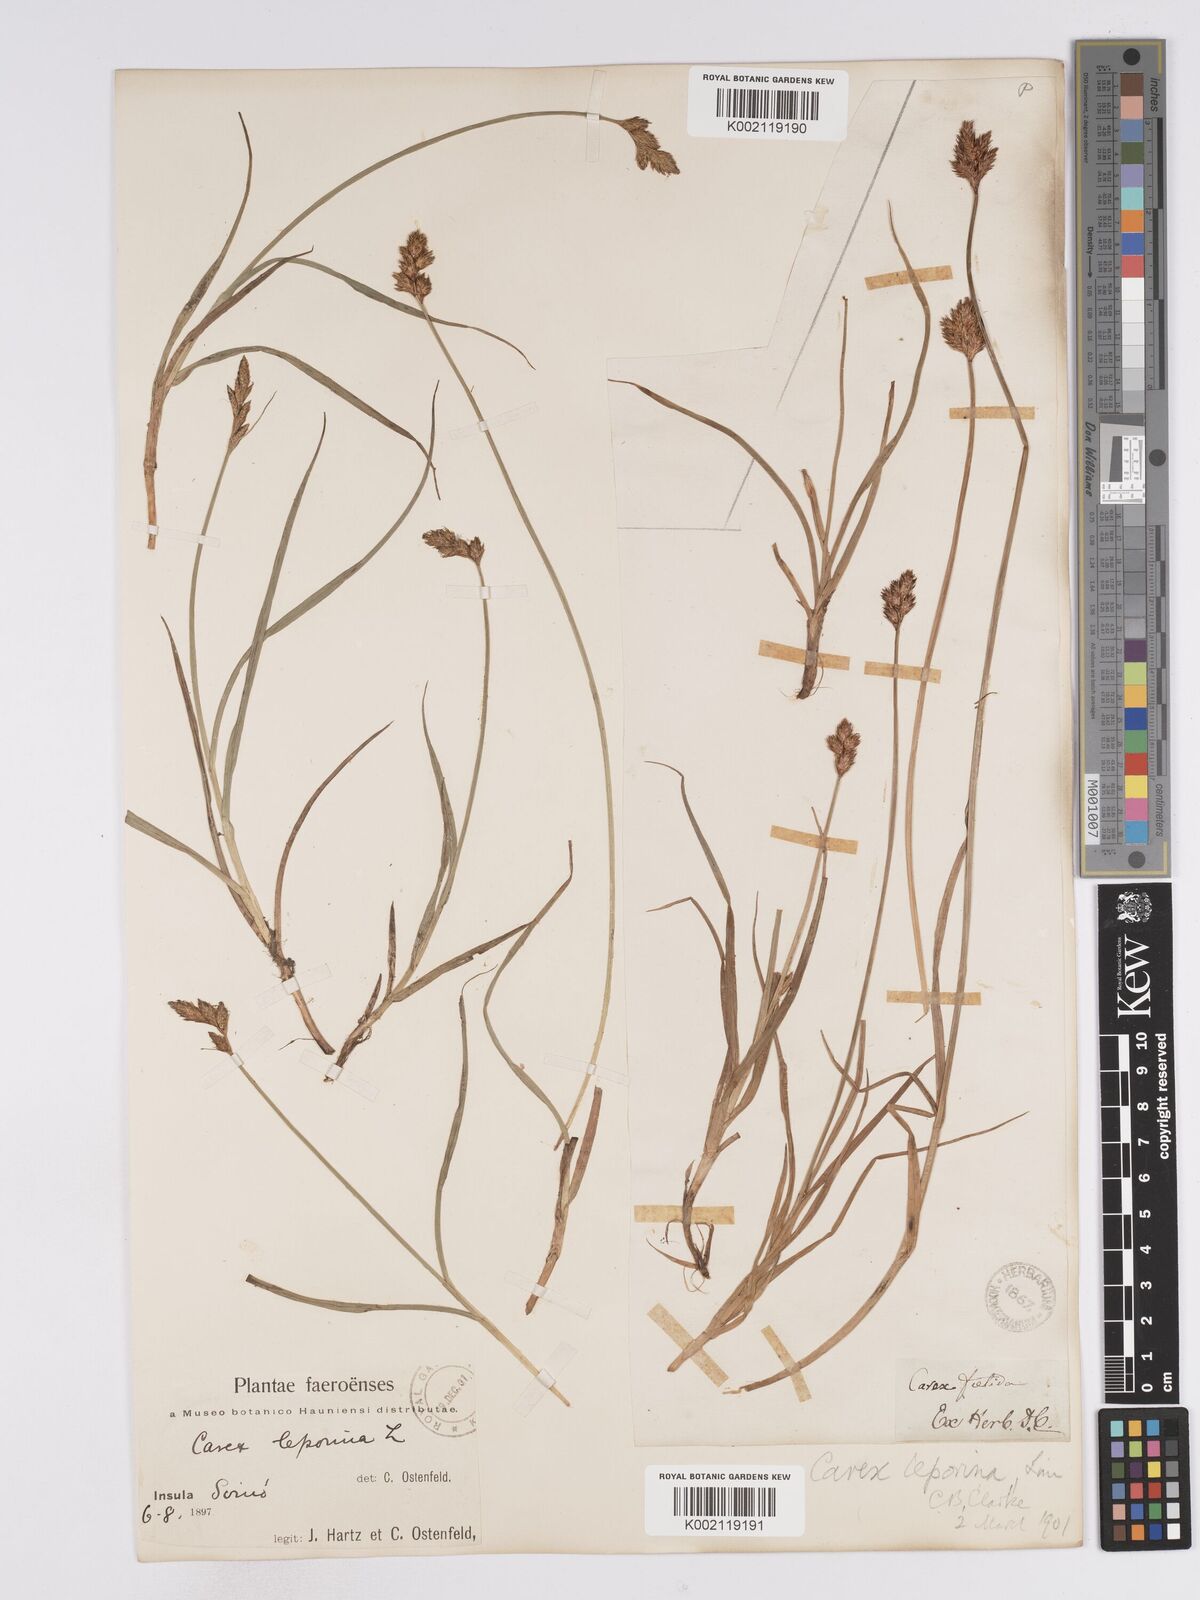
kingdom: Plantae
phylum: Tracheophyta
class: Liliopsida
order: Poales
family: Cyperaceae
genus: Carex
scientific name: Carex leporina
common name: Oval sedge
